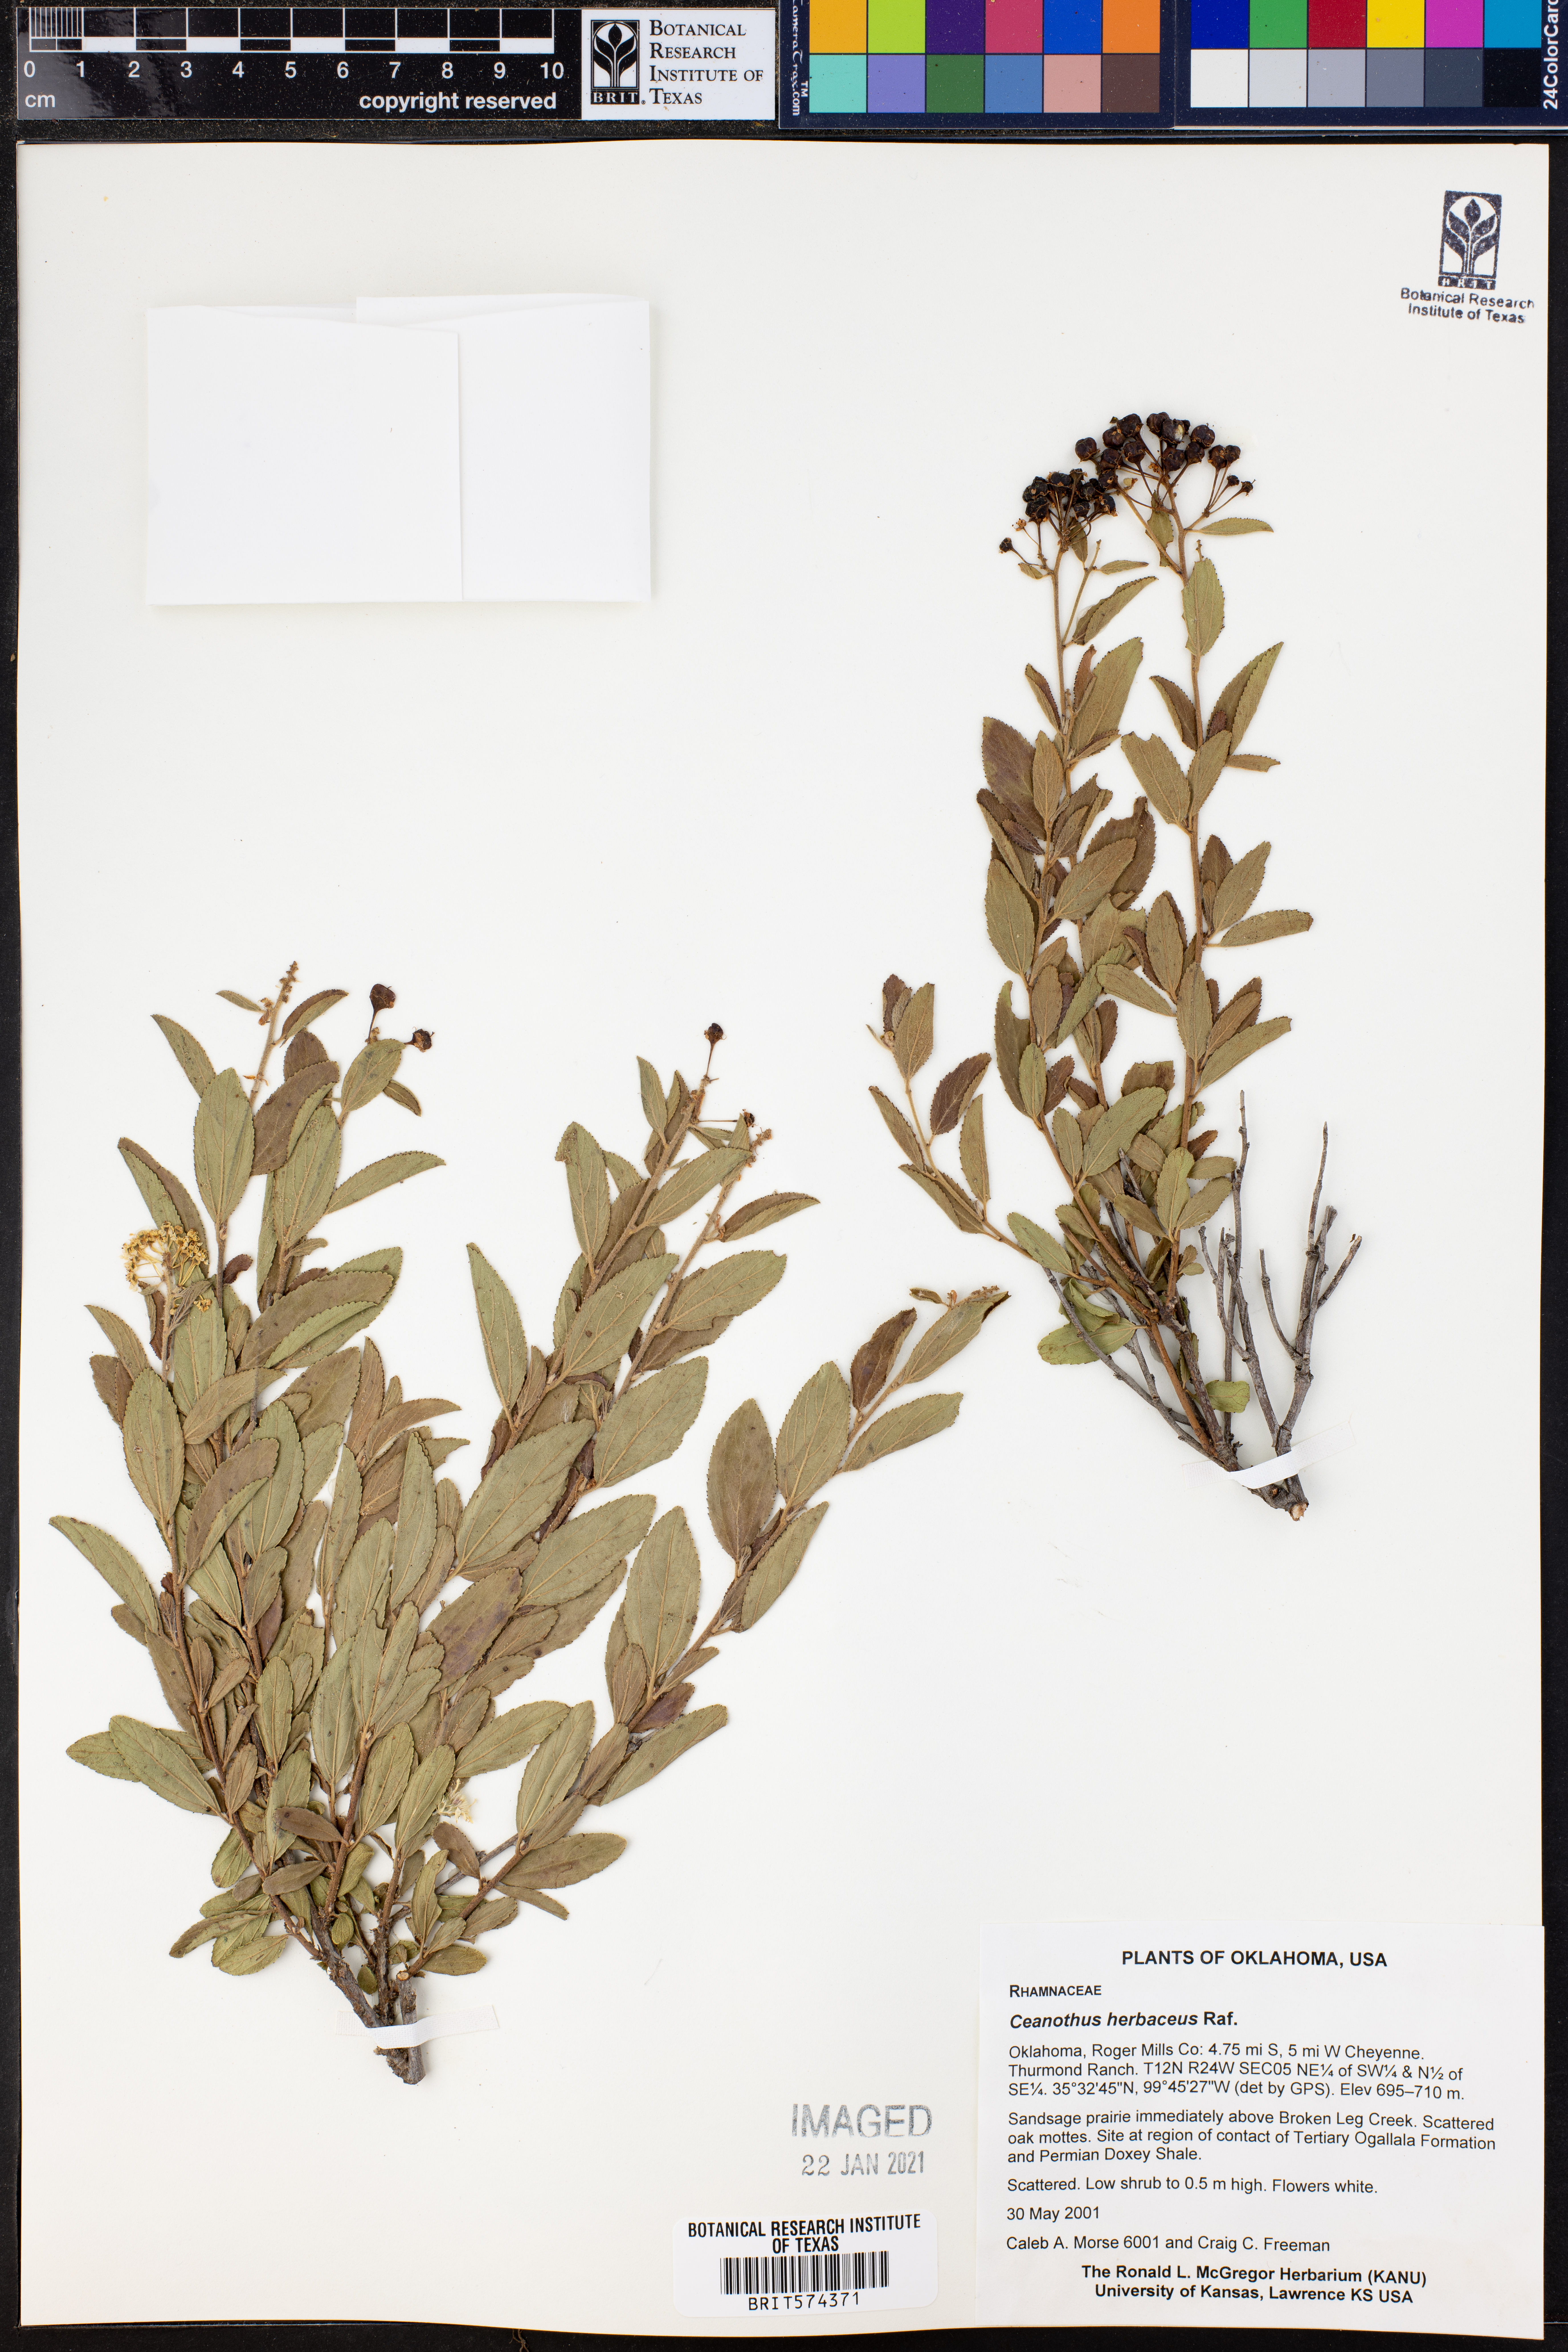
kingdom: Plantae
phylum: Tracheophyta
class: Magnoliopsida
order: Rosales
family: Rhamnaceae
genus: Ceanothus
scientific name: Ceanothus herbaceus
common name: Inland ceanothus
